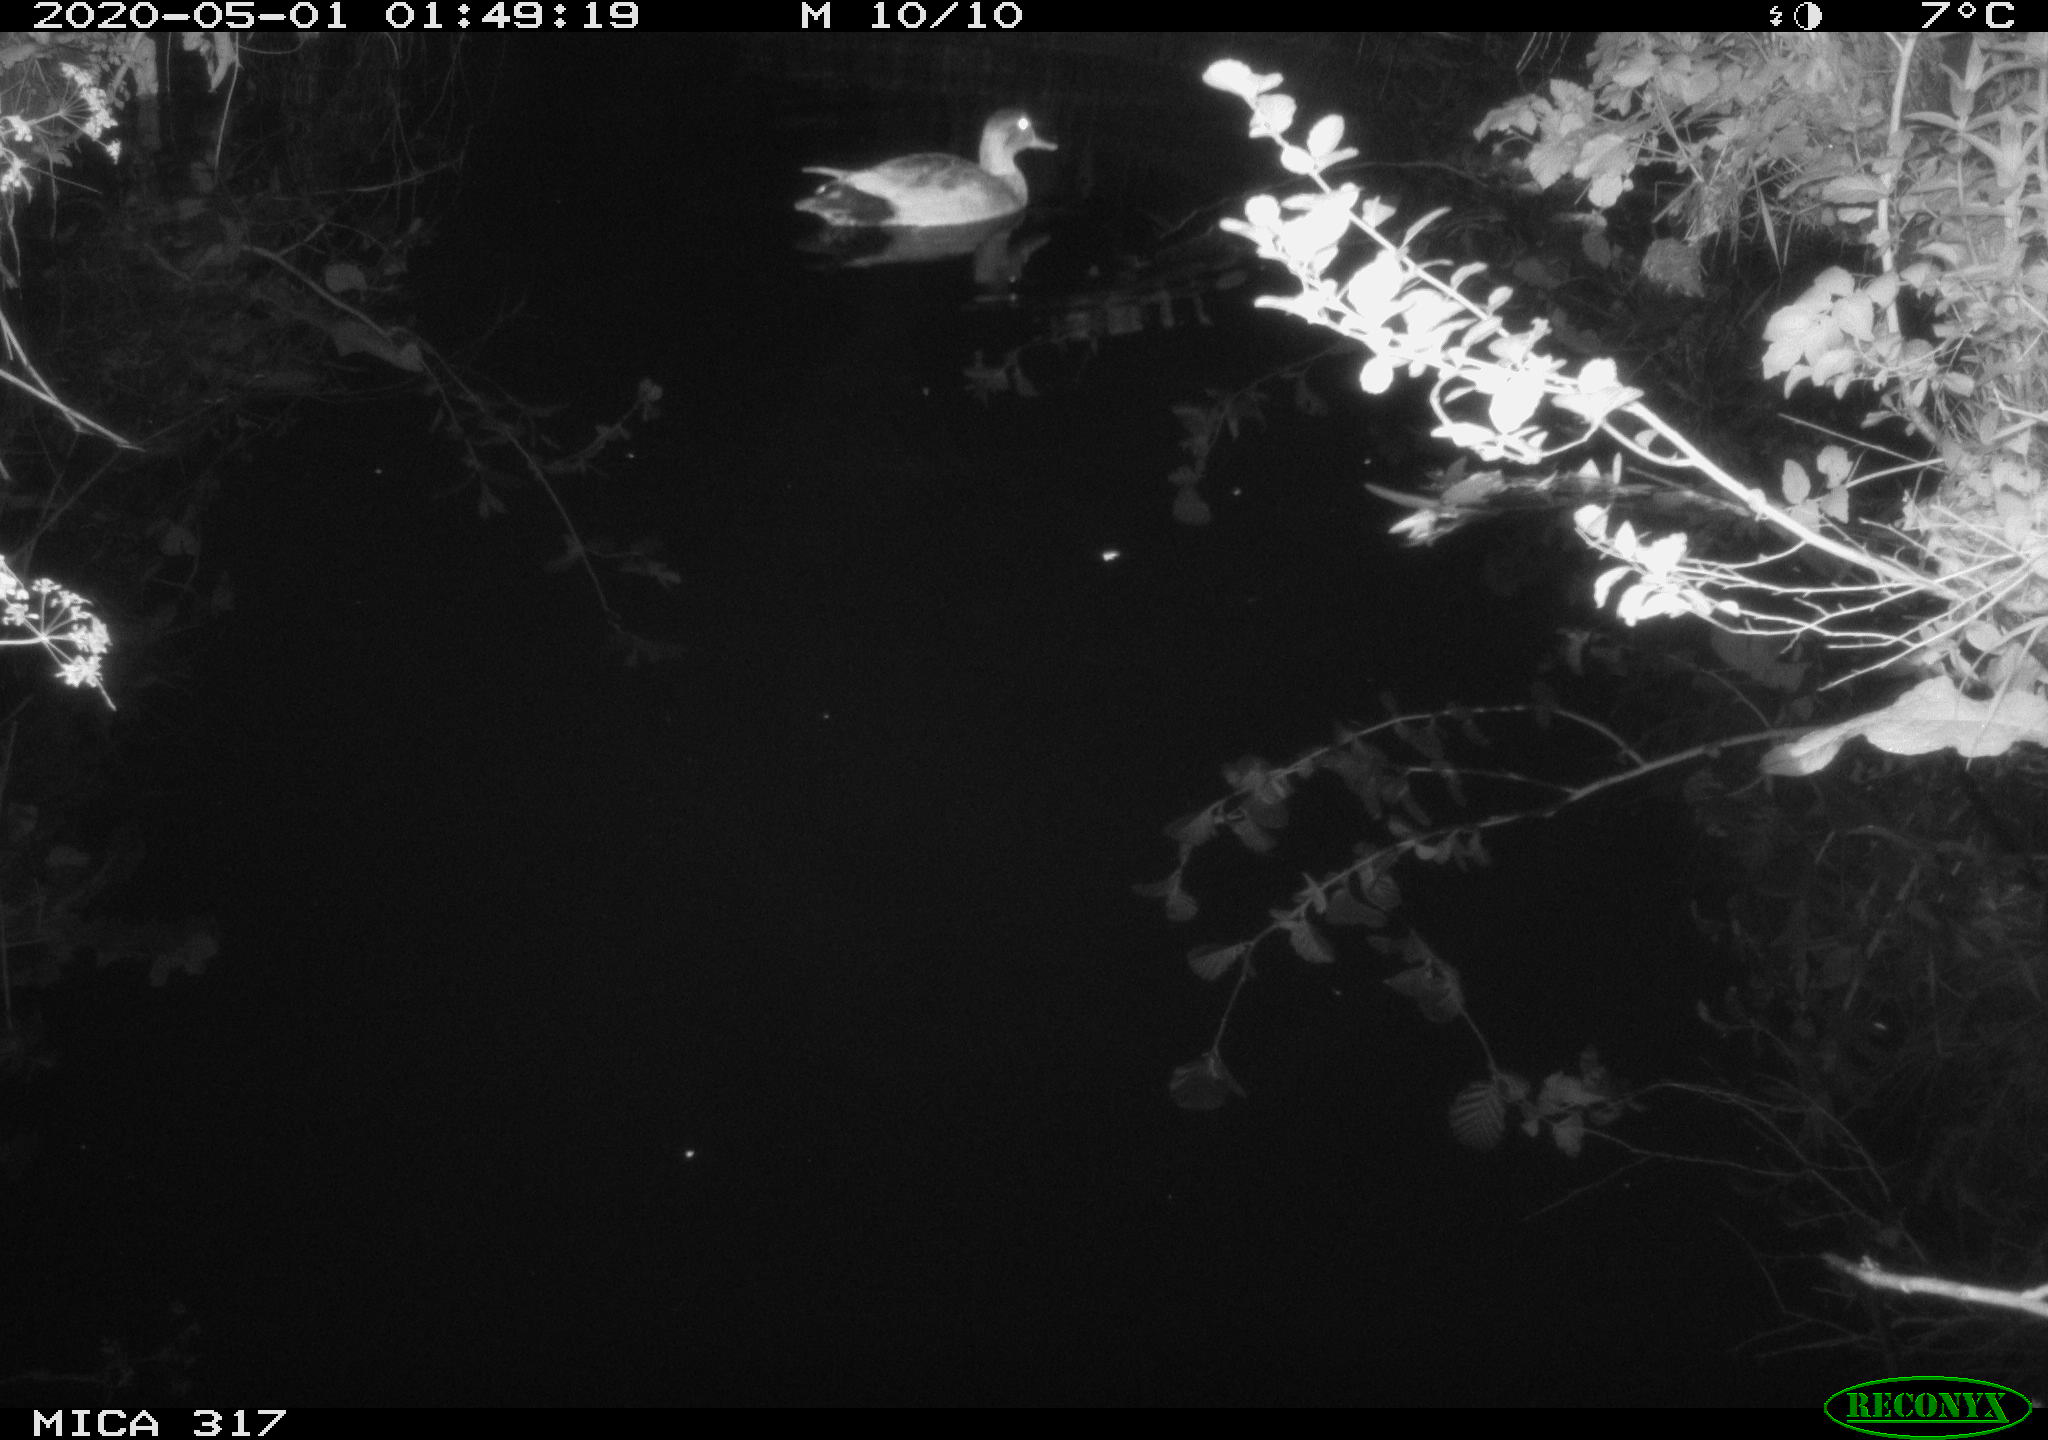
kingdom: Animalia
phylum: Chordata
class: Aves
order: Anseriformes
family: Anatidae
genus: Anas
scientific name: Anas platyrhynchos
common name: Mallard
